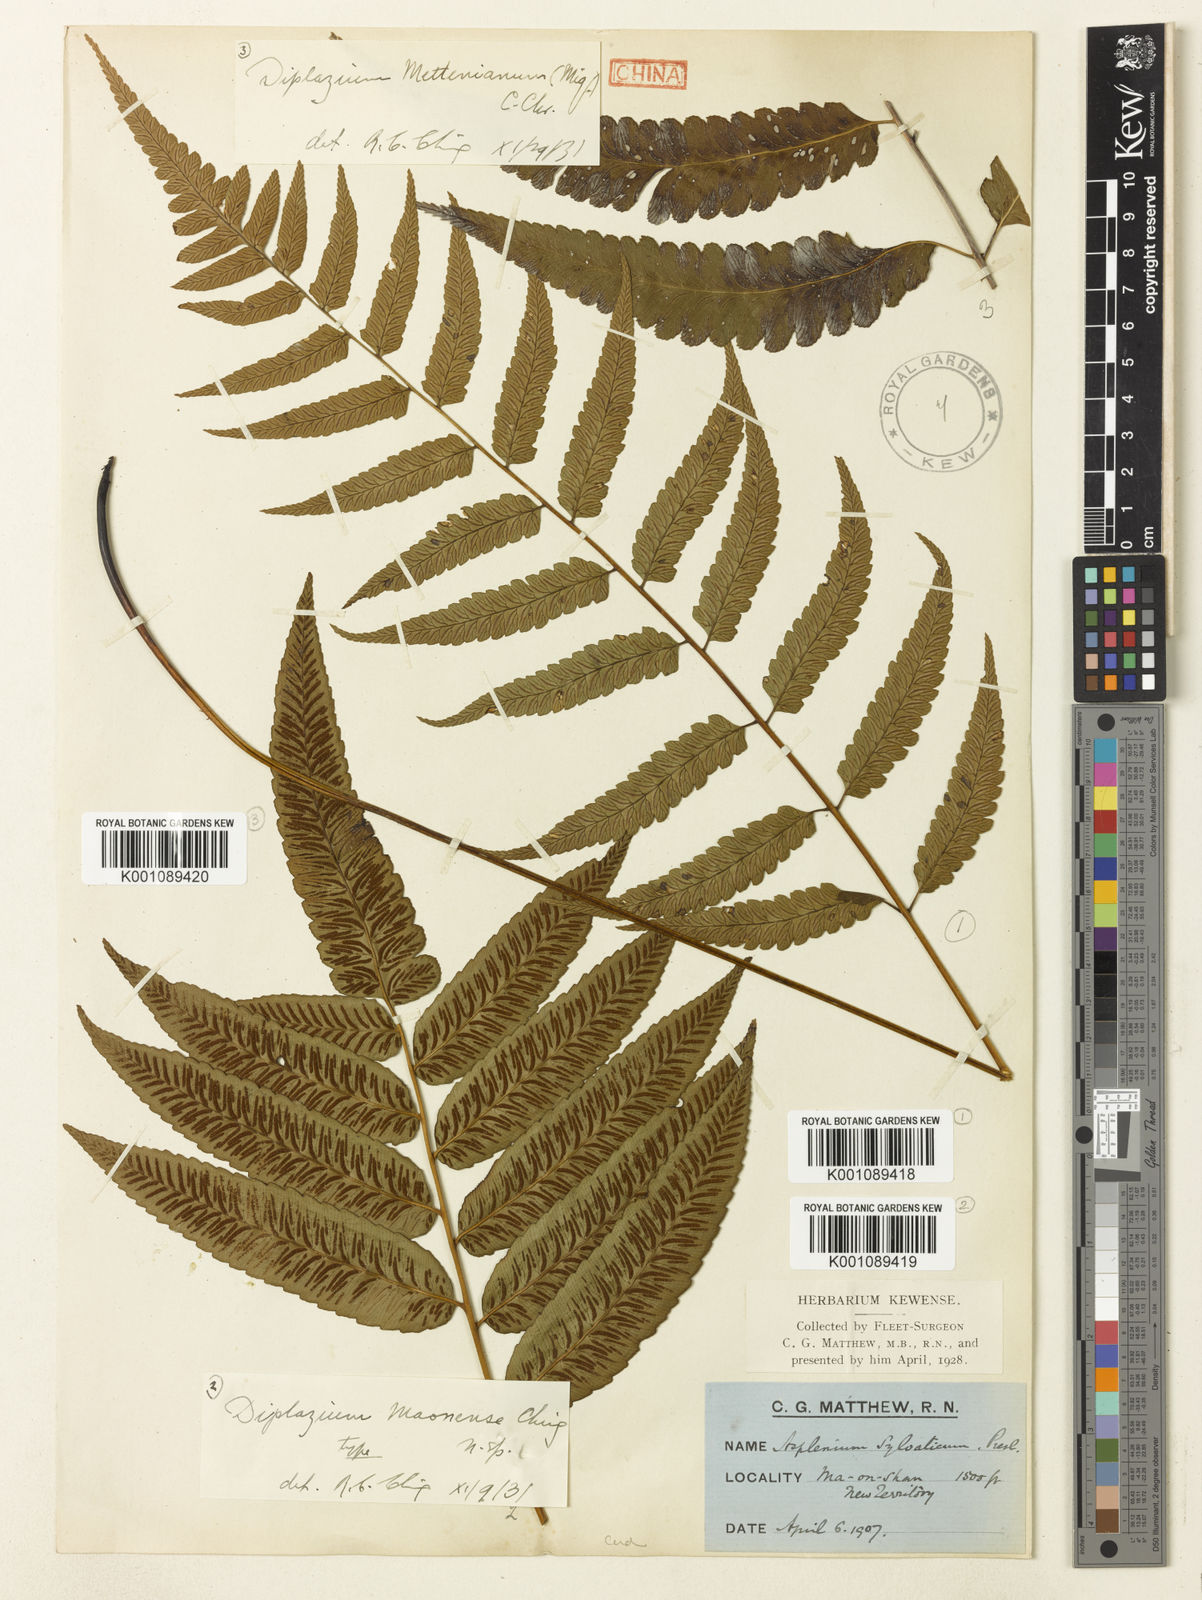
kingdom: Plantae
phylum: Tracheophyta
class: Polypodiopsida
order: Polypodiales
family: Athyriaceae
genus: Diplazium
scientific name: Diplazium maonense
